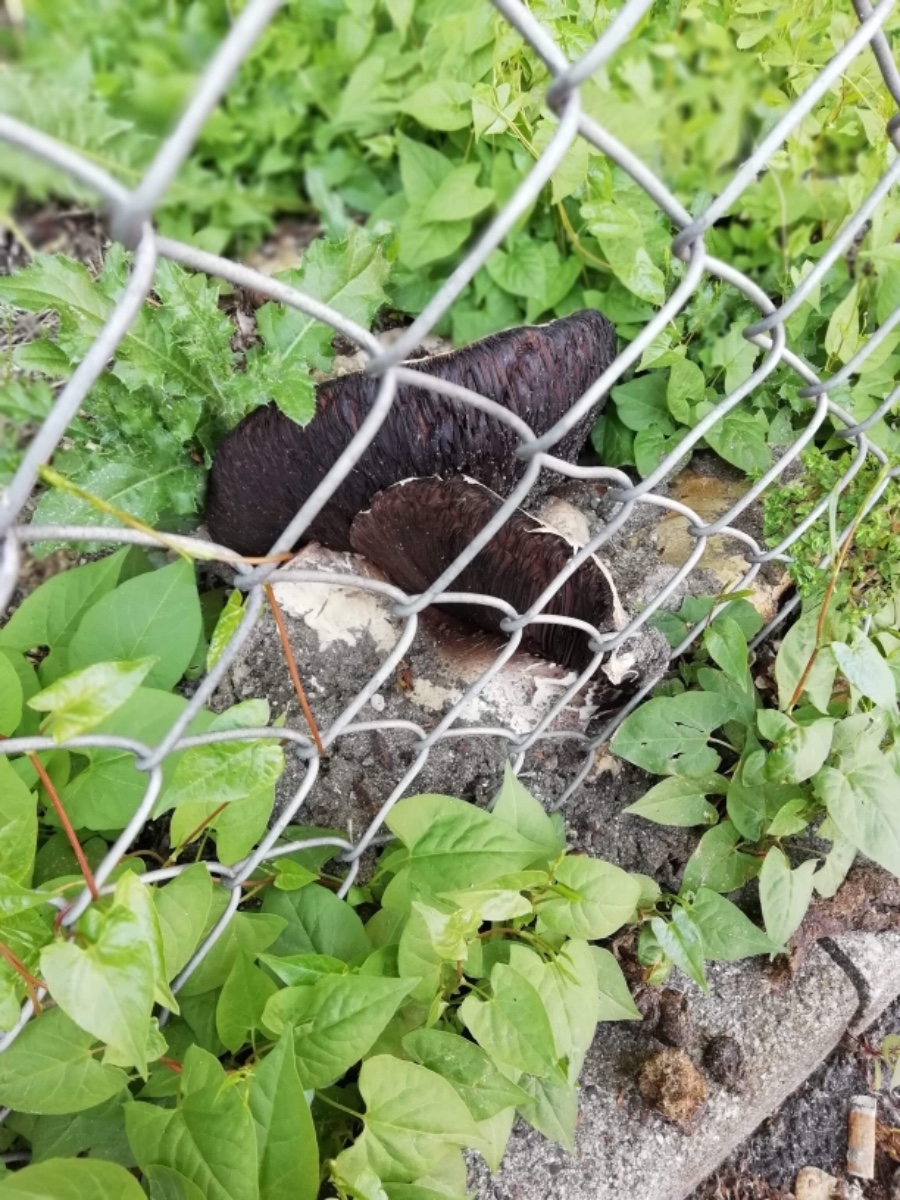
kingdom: Fungi
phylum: Basidiomycota
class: Agaricomycetes
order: Agaricales
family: Agaricaceae
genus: Agaricus
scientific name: Agaricus bitorquis
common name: vej-champignon
